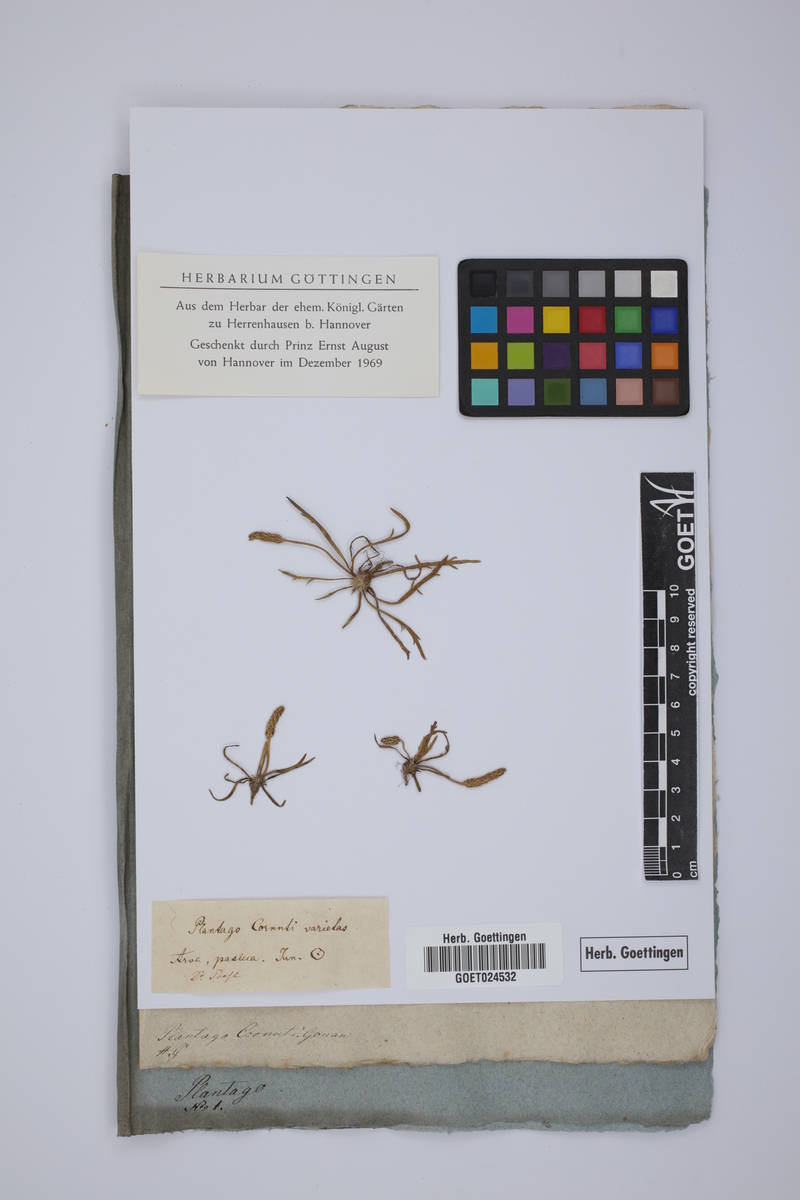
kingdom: Plantae
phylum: Tracheophyta
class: Magnoliopsida
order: Lamiales
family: Plantaginaceae
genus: Plantago
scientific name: Plantago
